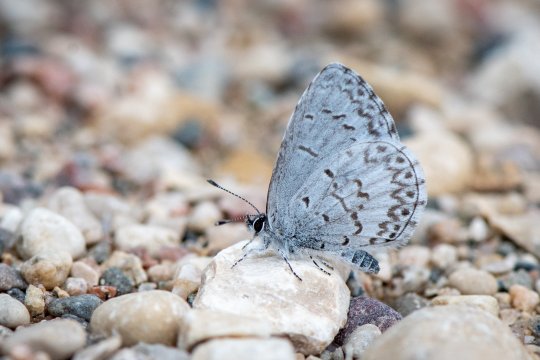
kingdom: Animalia
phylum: Arthropoda
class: Insecta
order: Lepidoptera
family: Lycaenidae
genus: Cyaniris
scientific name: Cyaniris neglecta
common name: Summer Azure
